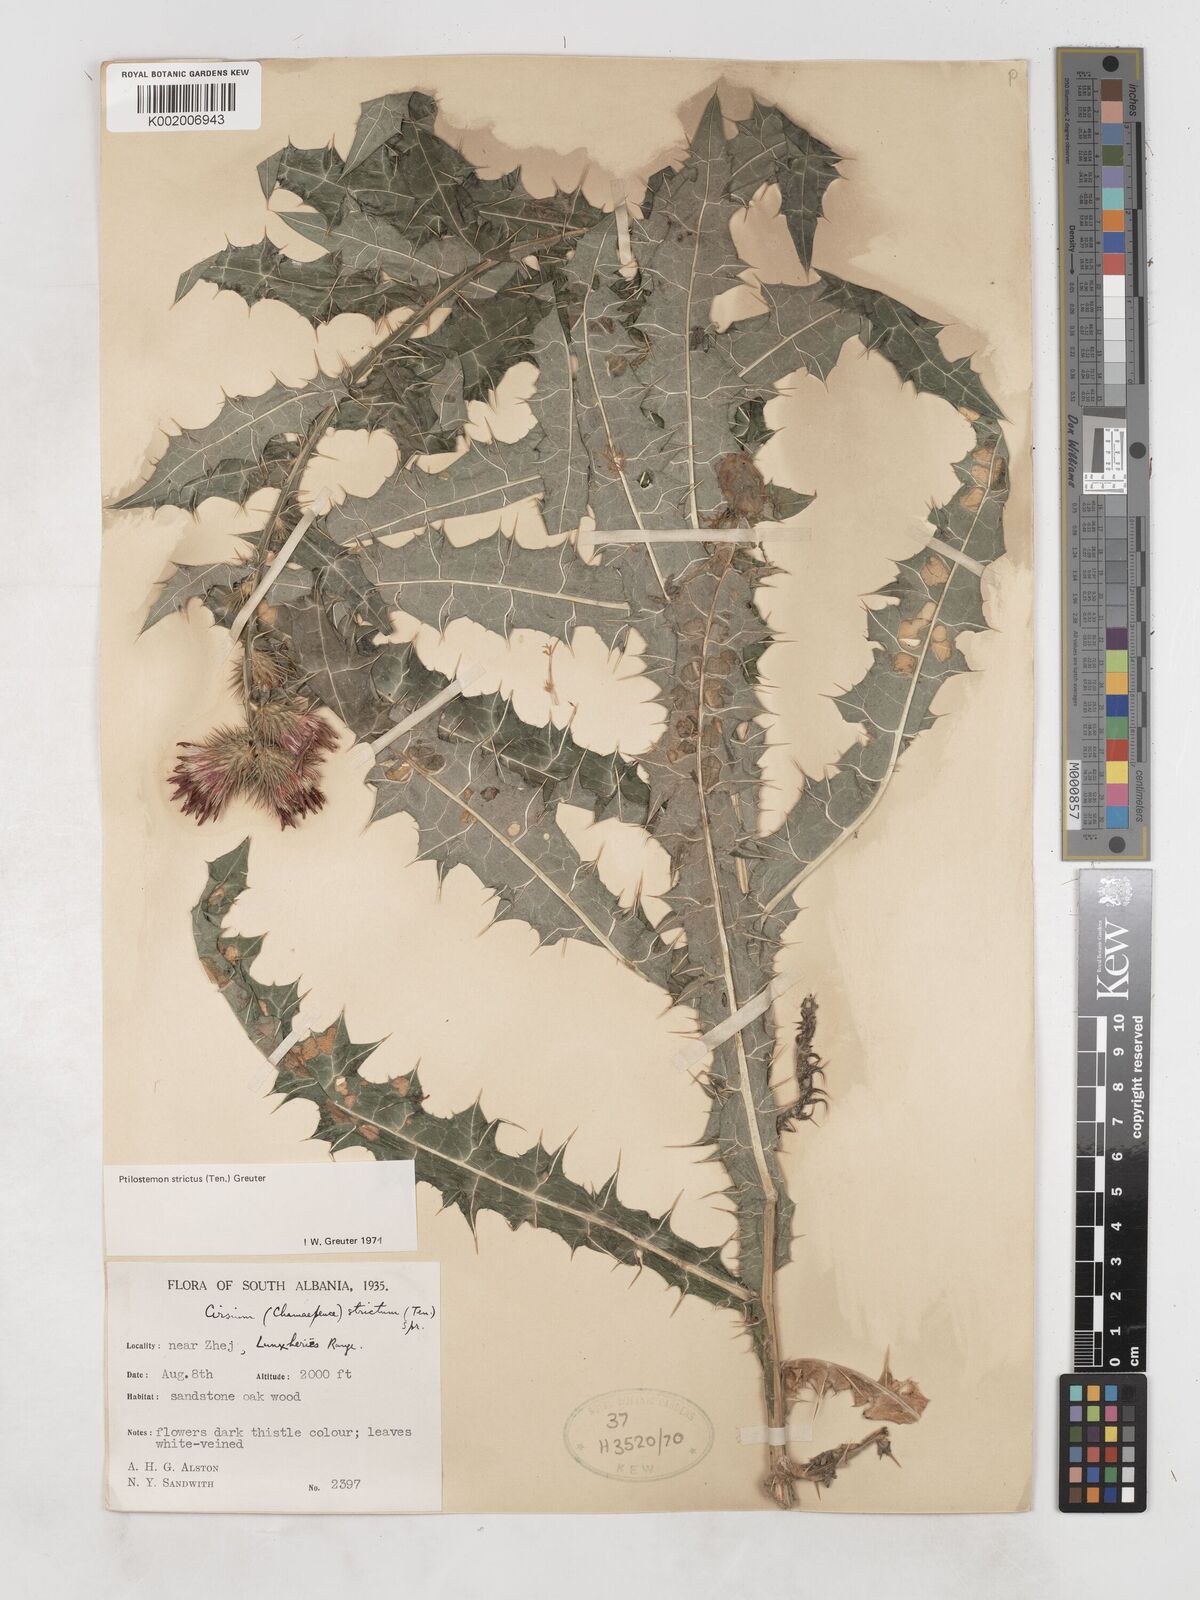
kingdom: Plantae
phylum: Tracheophyta
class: Magnoliopsida
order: Asterales
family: Asteraceae
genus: Ptilostemon
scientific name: Ptilostemon strictus
